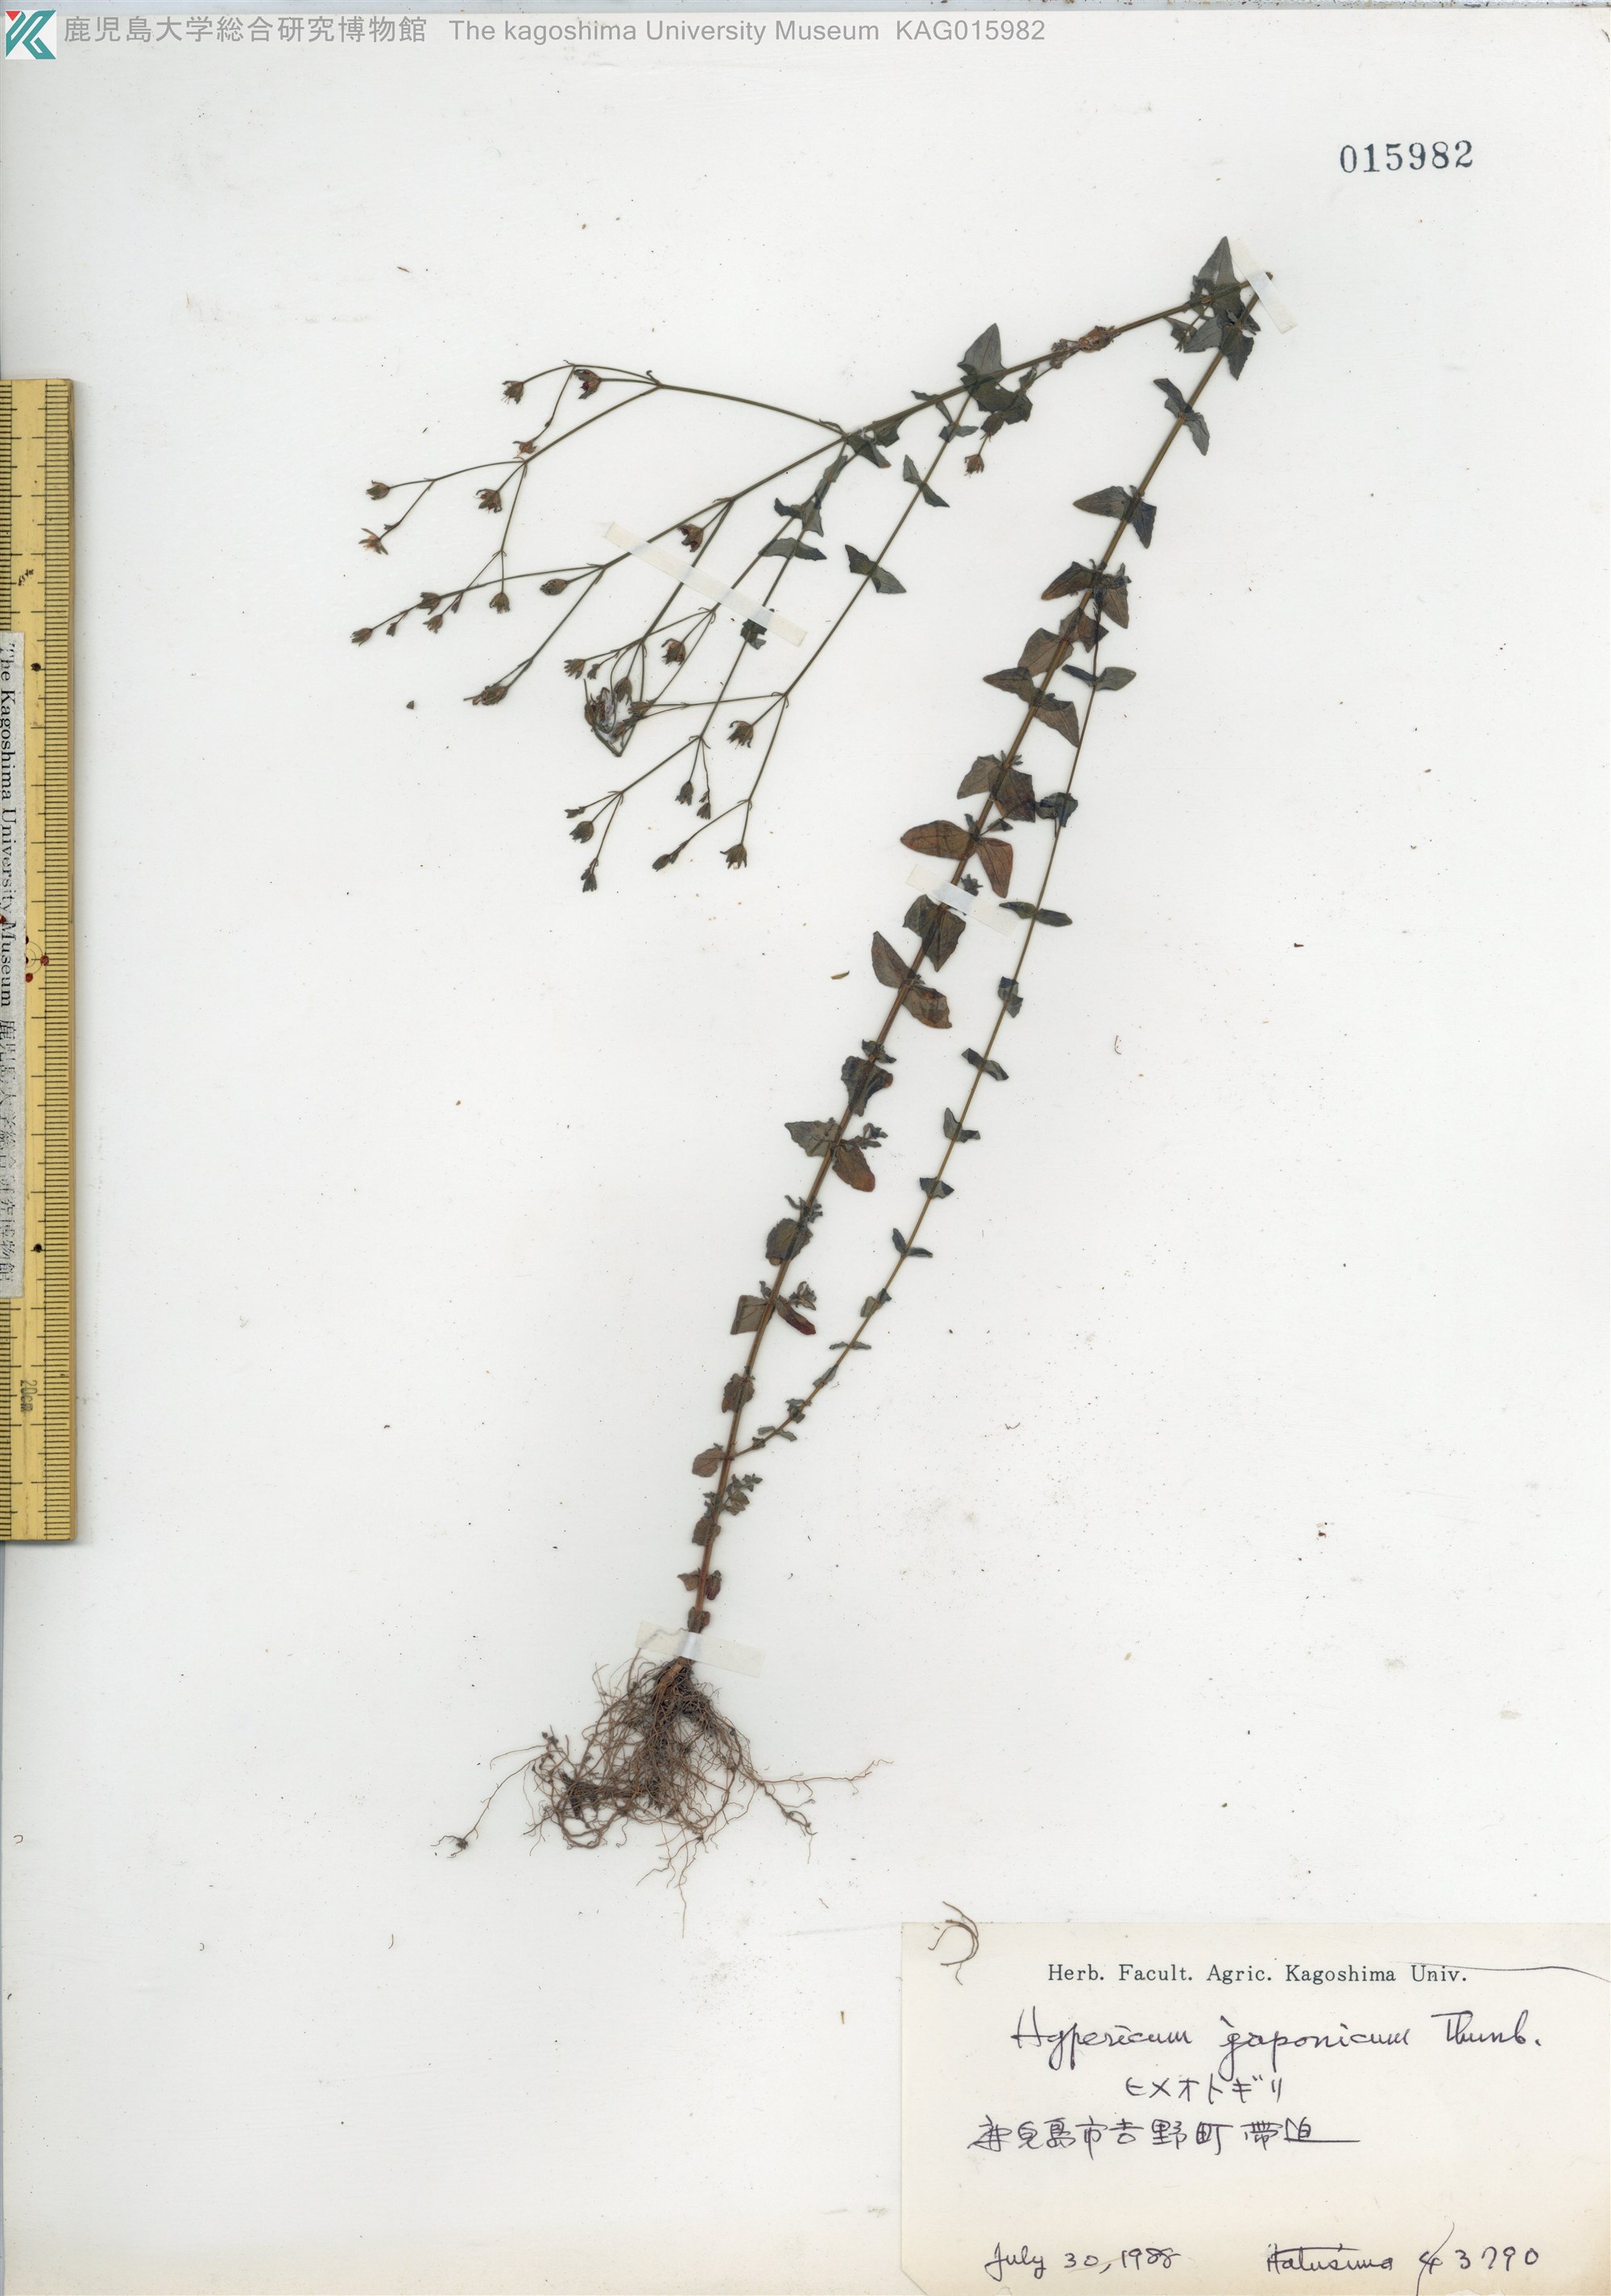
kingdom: Plantae
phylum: Tracheophyta
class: Magnoliopsida
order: Malpighiales
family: Hypericaceae
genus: Hypericum
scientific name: Hypericum japonicum
